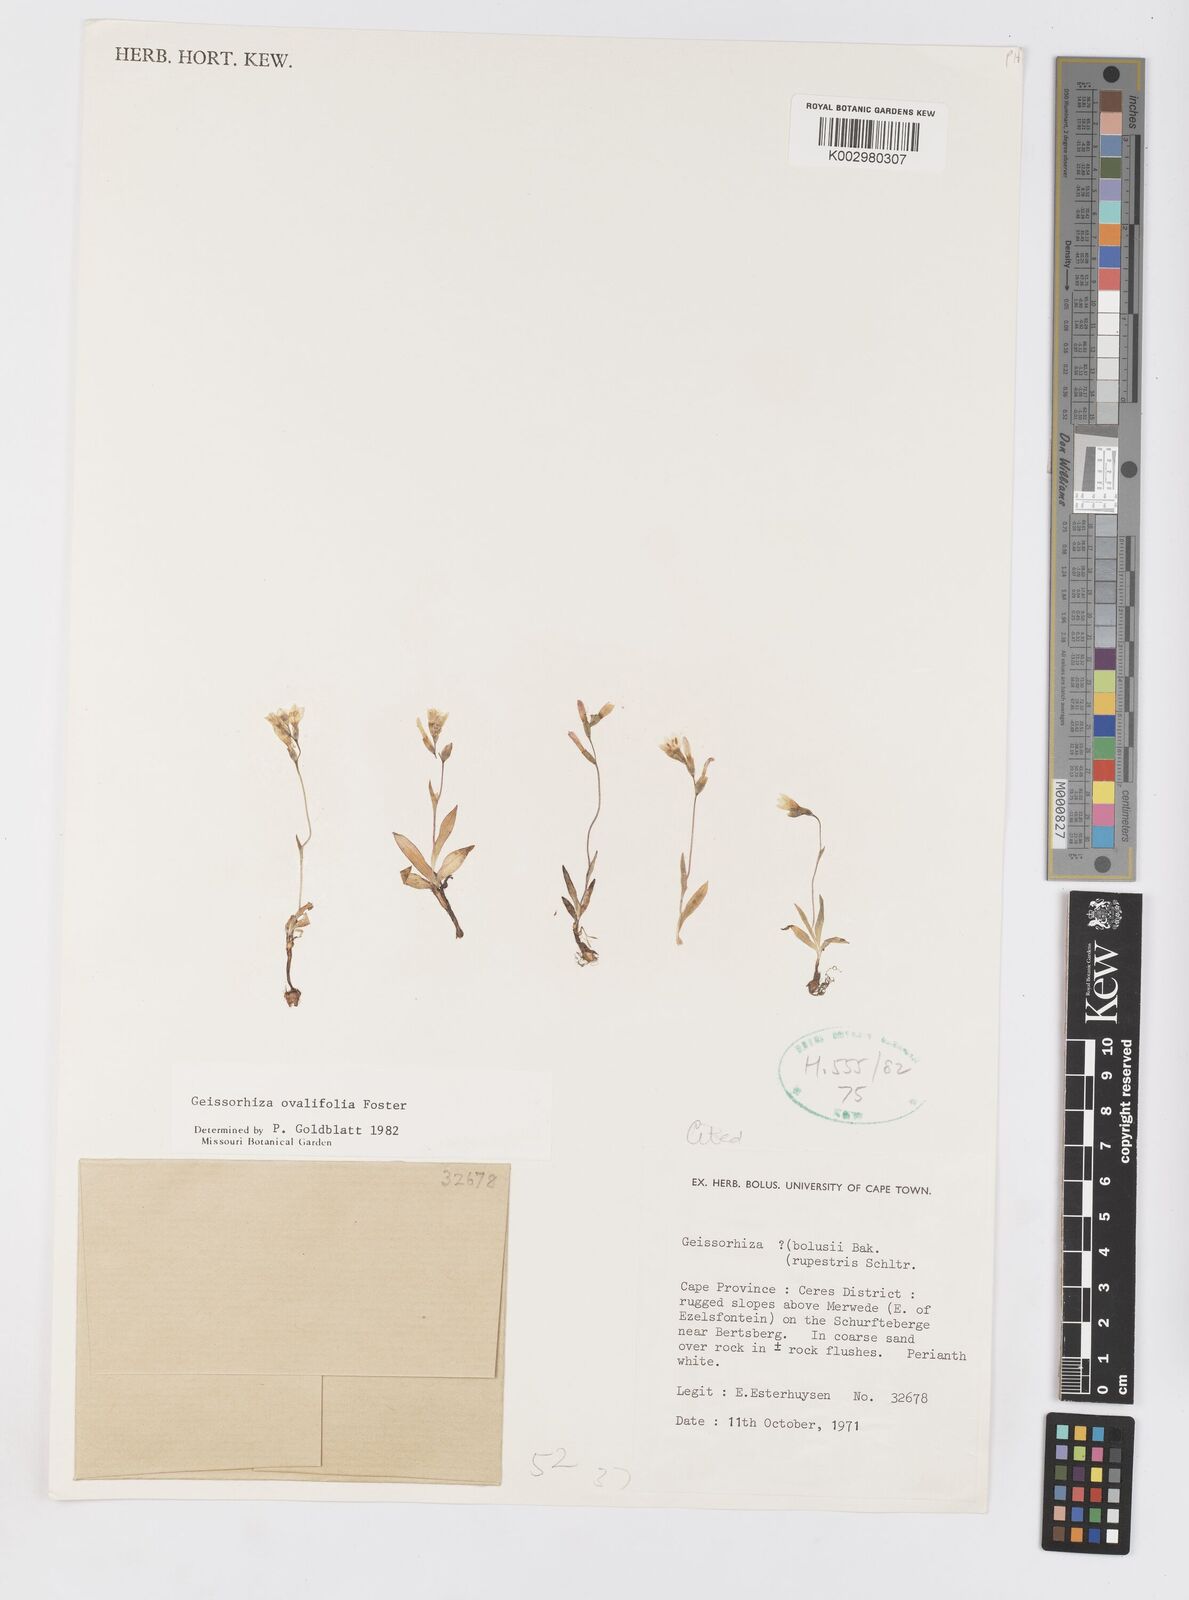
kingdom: Plantae
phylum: Tracheophyta
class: Liliopsida
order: Asparagales
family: Iridaceae
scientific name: Iridaceae
